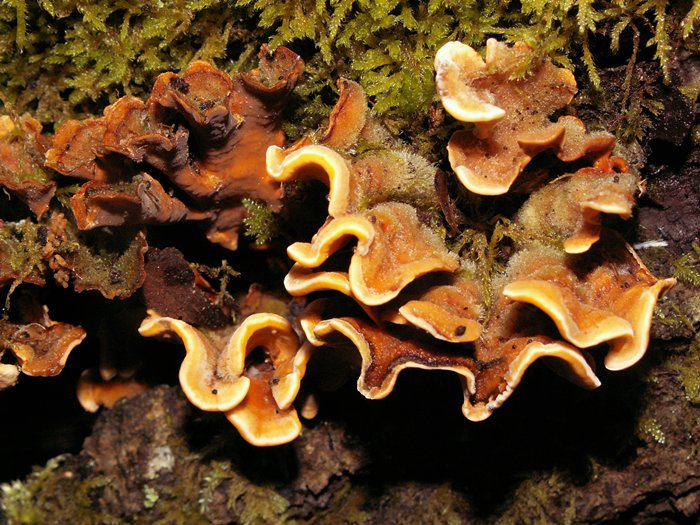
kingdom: Fungi
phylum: Basidiomycota
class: Agaricomycetes
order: Russulales
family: Stereaceae
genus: Stereum
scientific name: Stereum hirsutum
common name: håret lædersvamp
